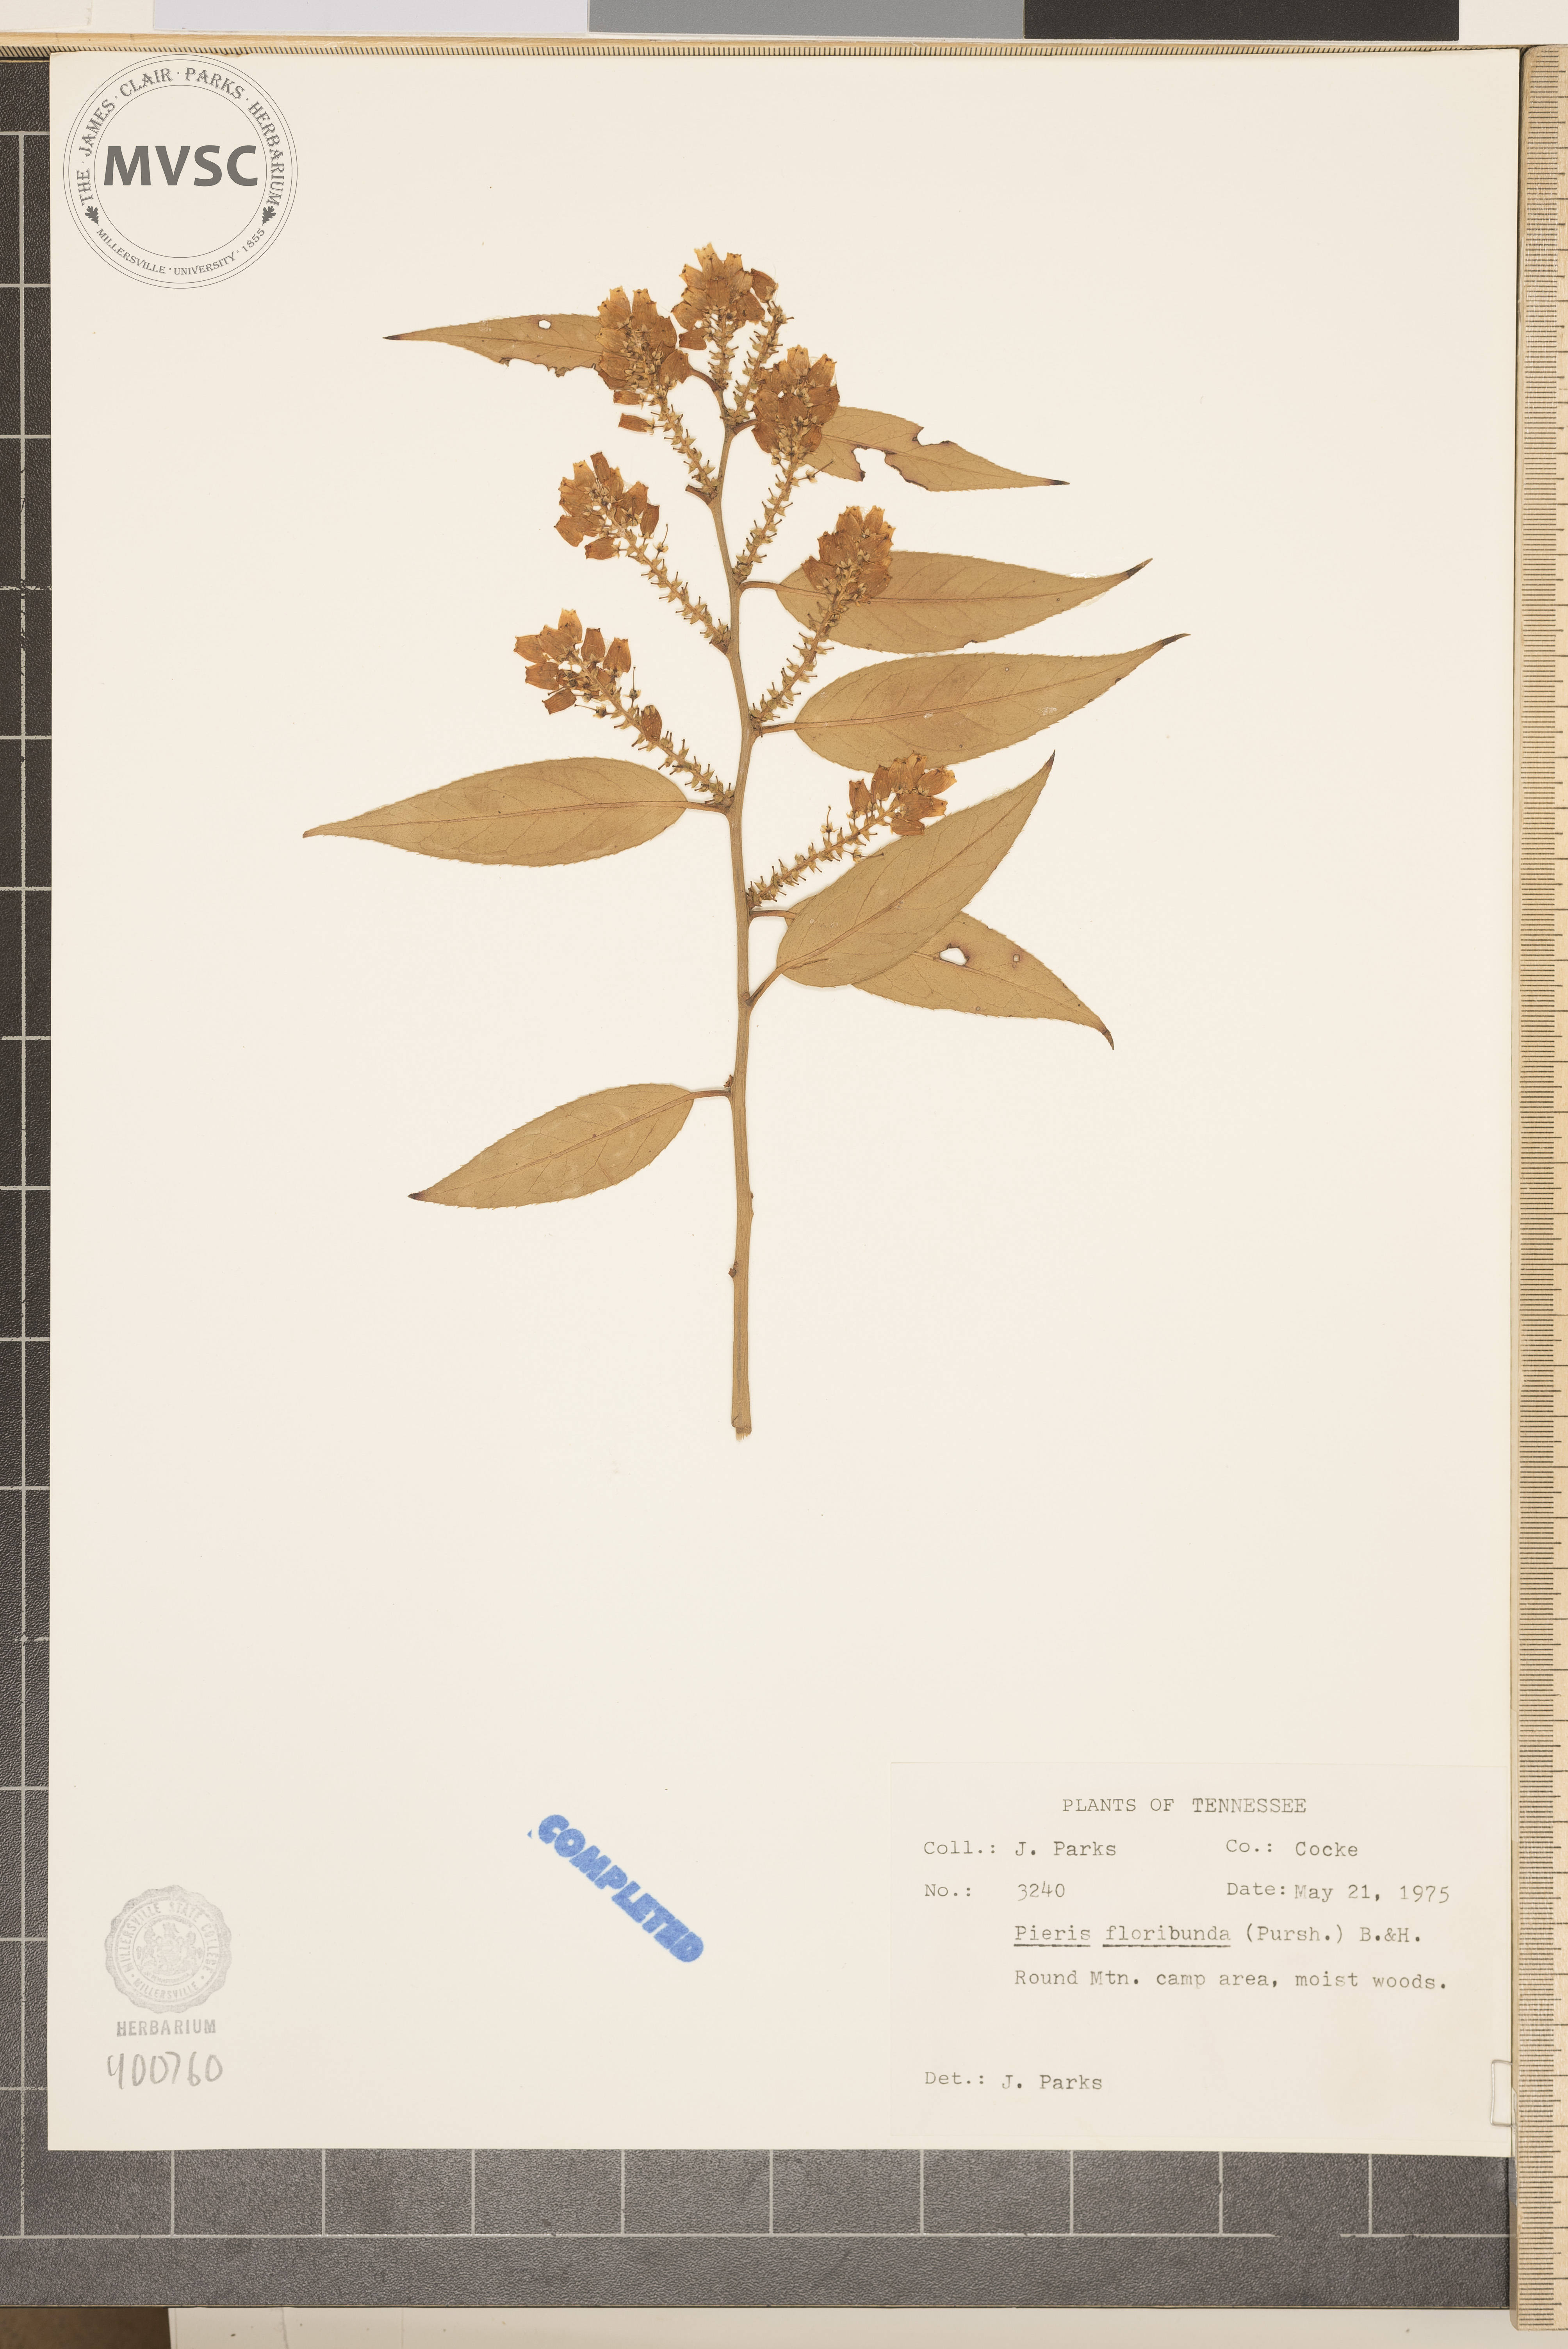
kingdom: Plantae
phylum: Tracheophyta
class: Magnoliopsida
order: Ericales
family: Ericaceae
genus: Pieris
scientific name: Pieris floribunda
